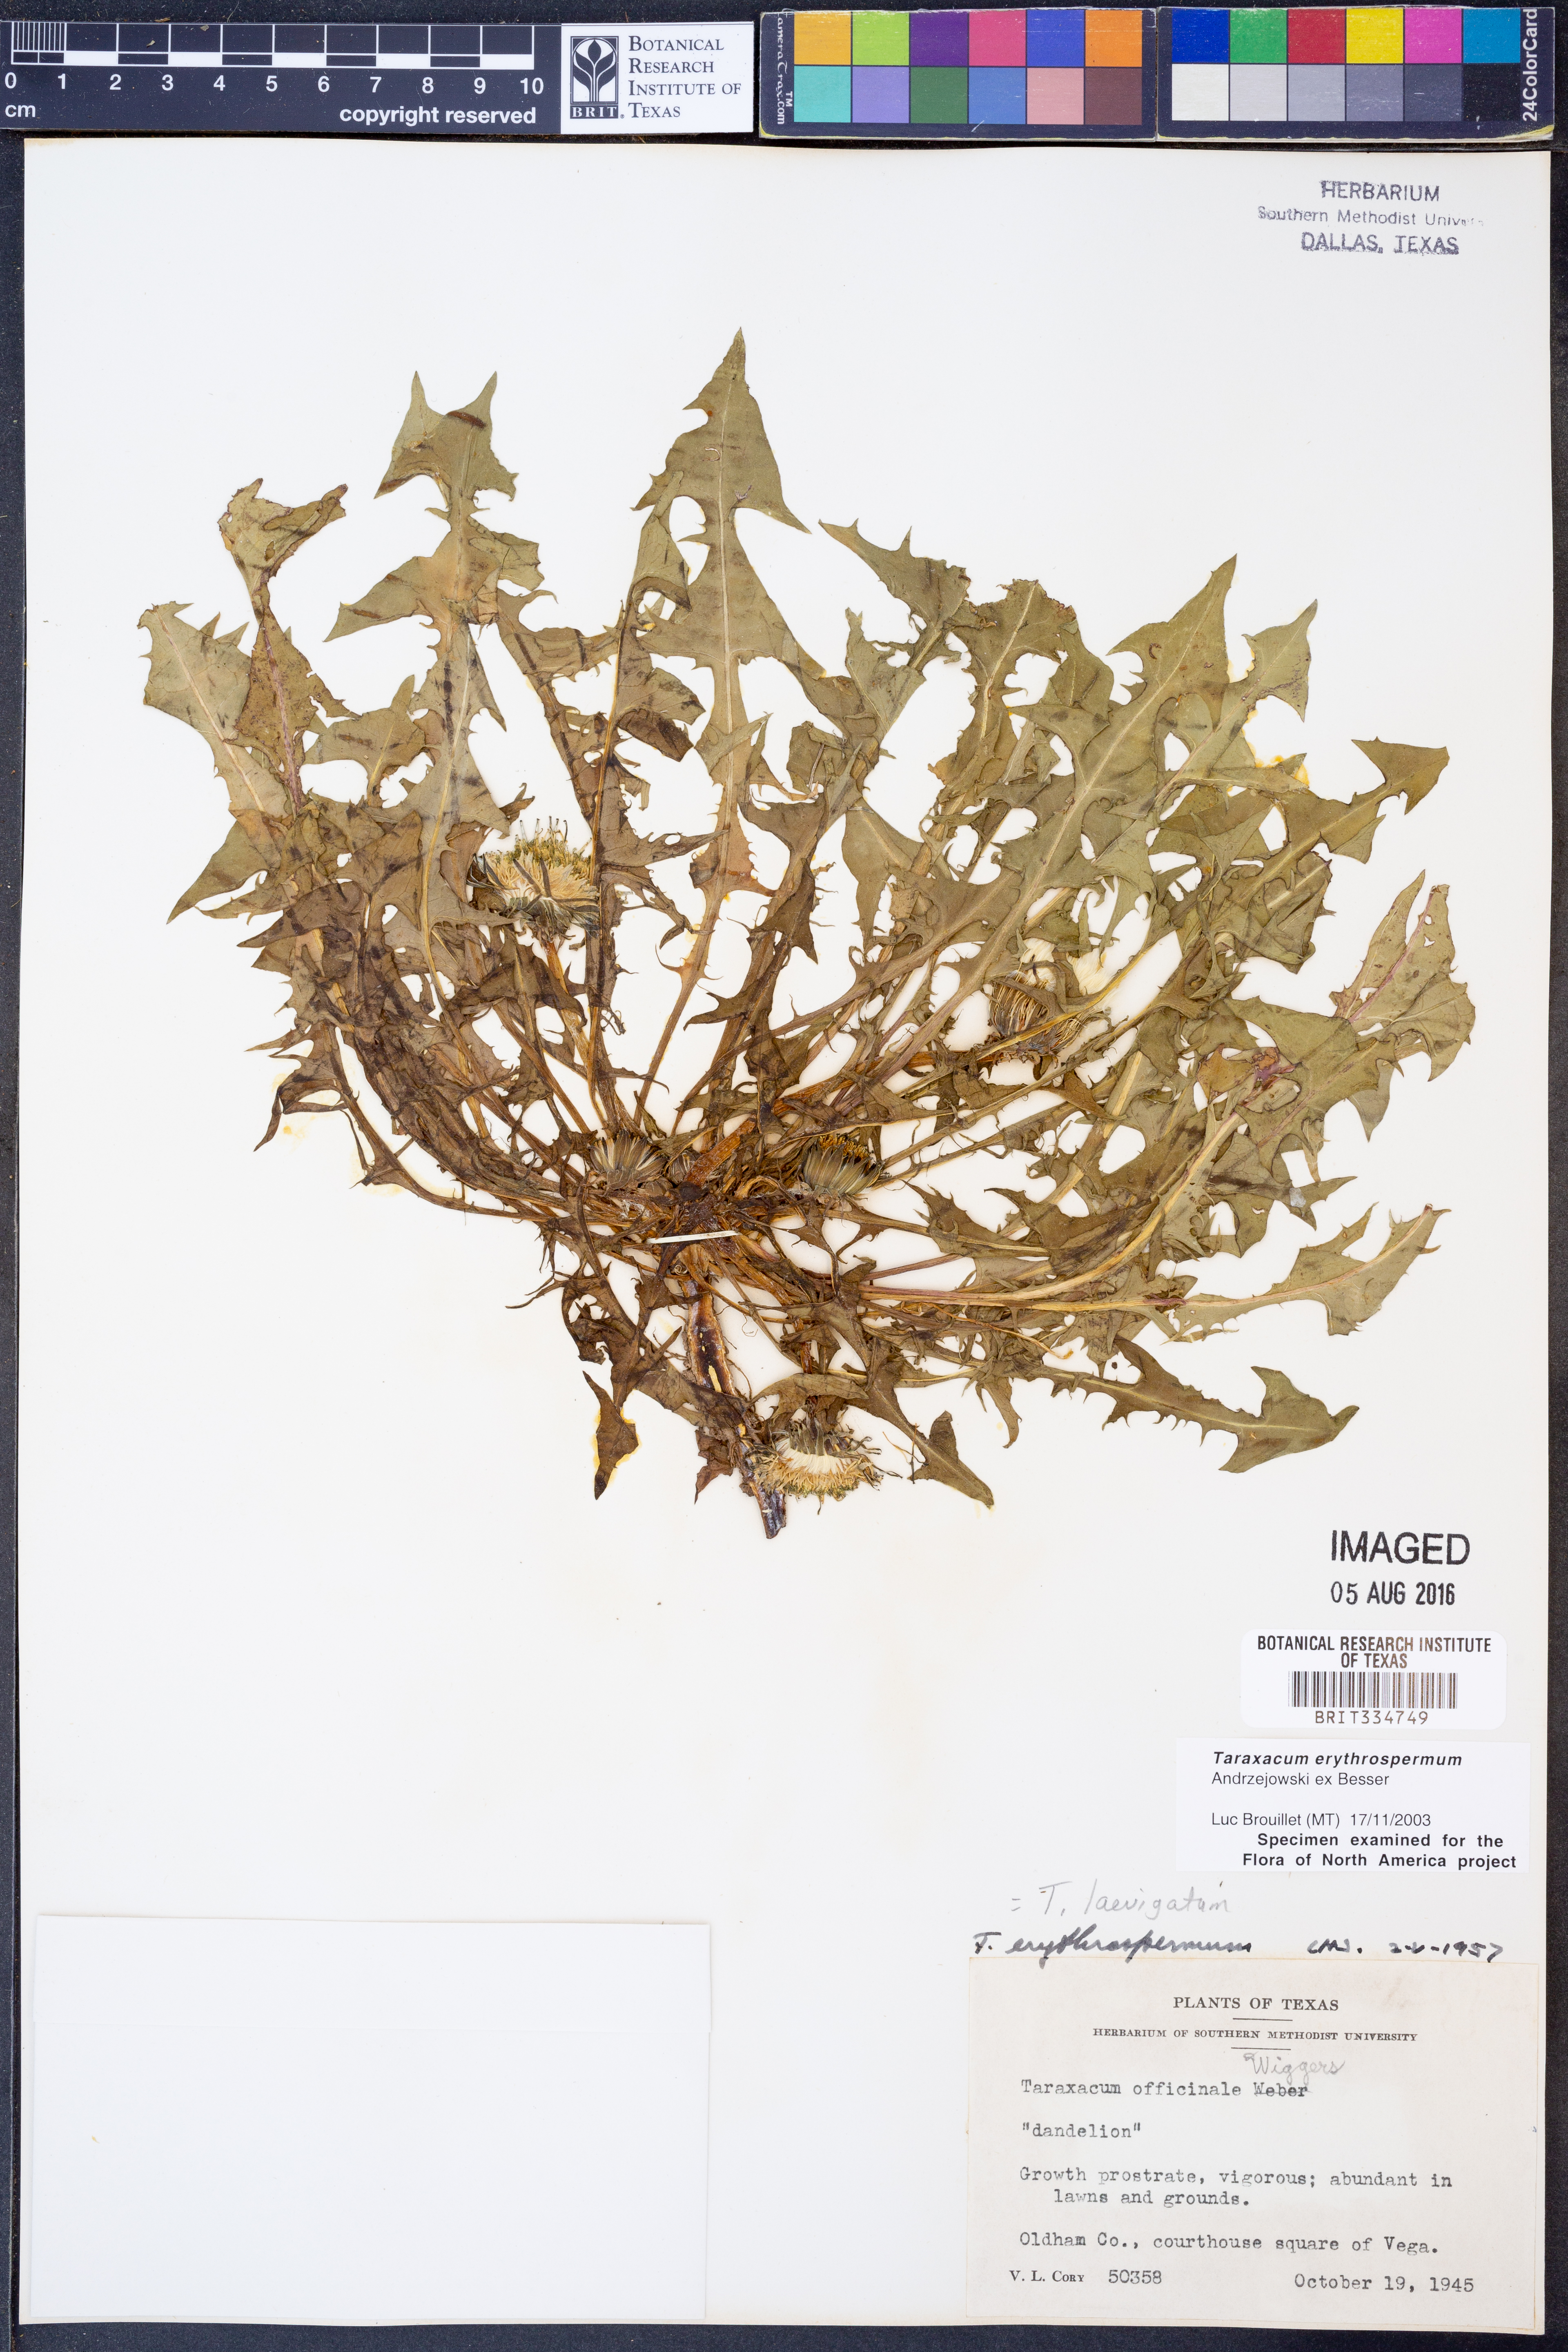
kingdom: Plantae
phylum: Tracheophyta
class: Magnoliopsida
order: Asterales
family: Asteraceae
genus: Taraxacum
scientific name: Taraxacum erythrospermum
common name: Rock dandelion
